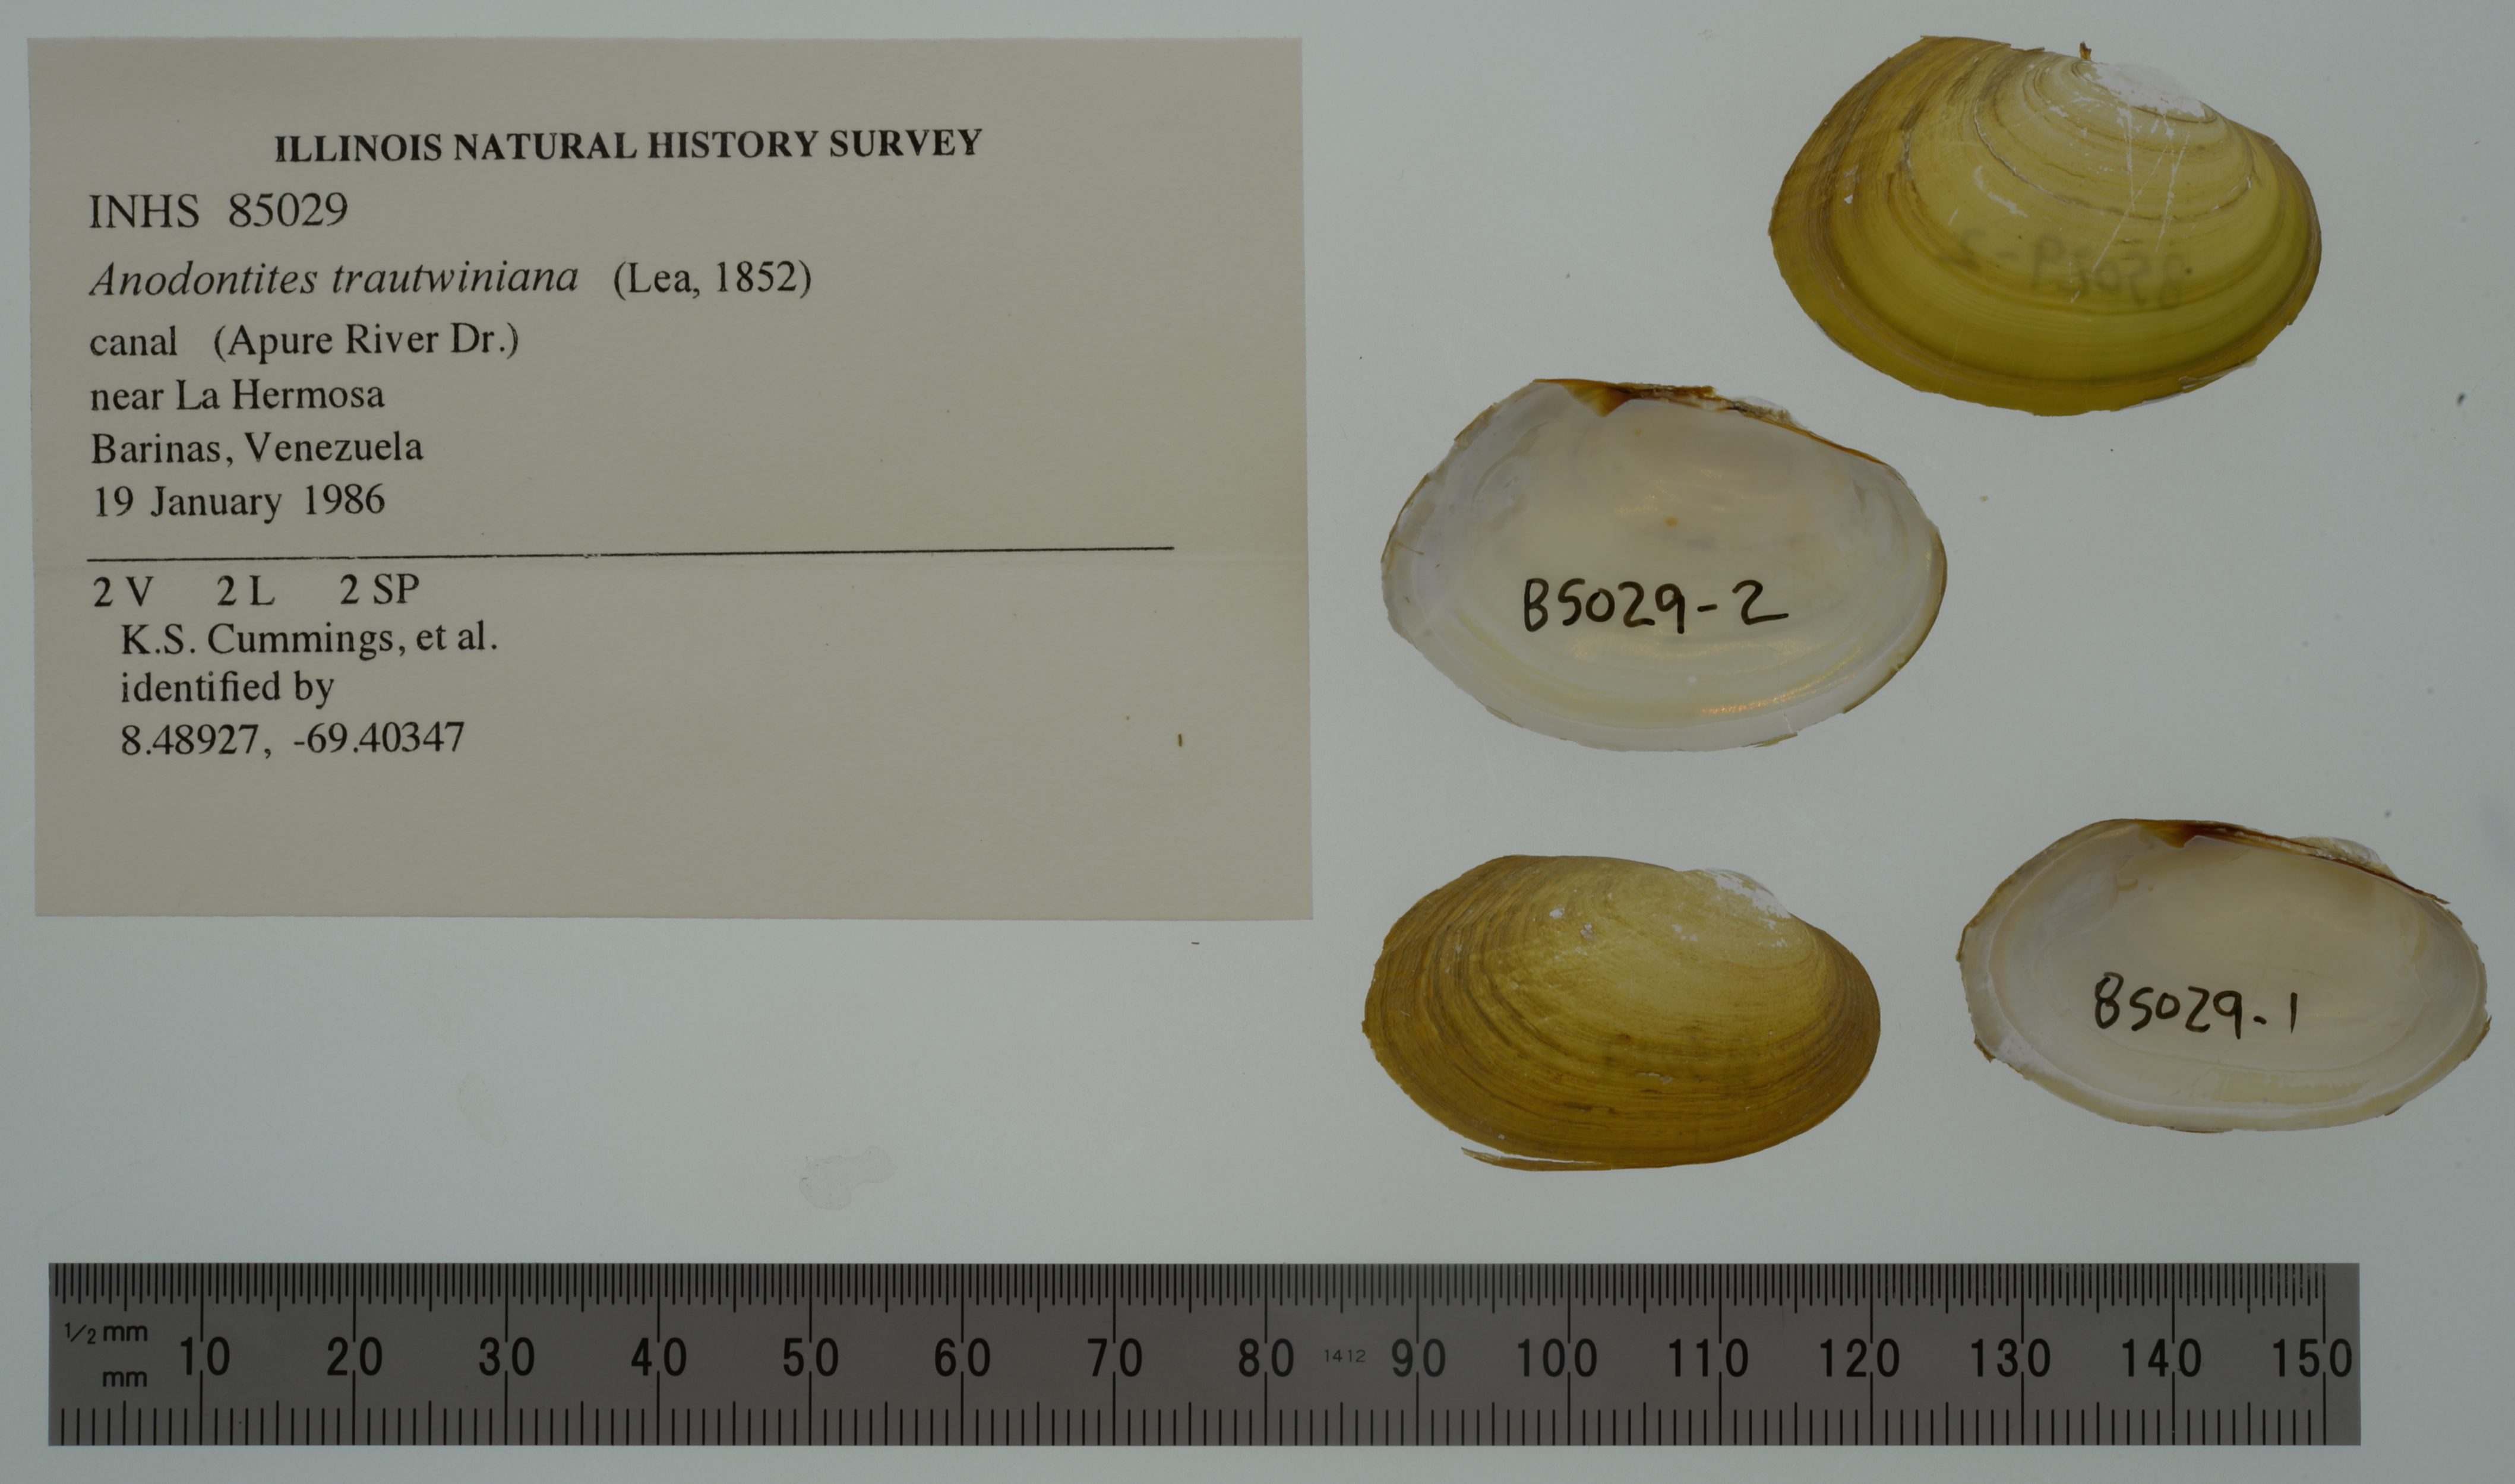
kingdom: Animalia
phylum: Mollusca
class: Bivalvia
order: Unionida
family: Mycetopodidae
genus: Anodontites
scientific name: Anodontites tortilis
